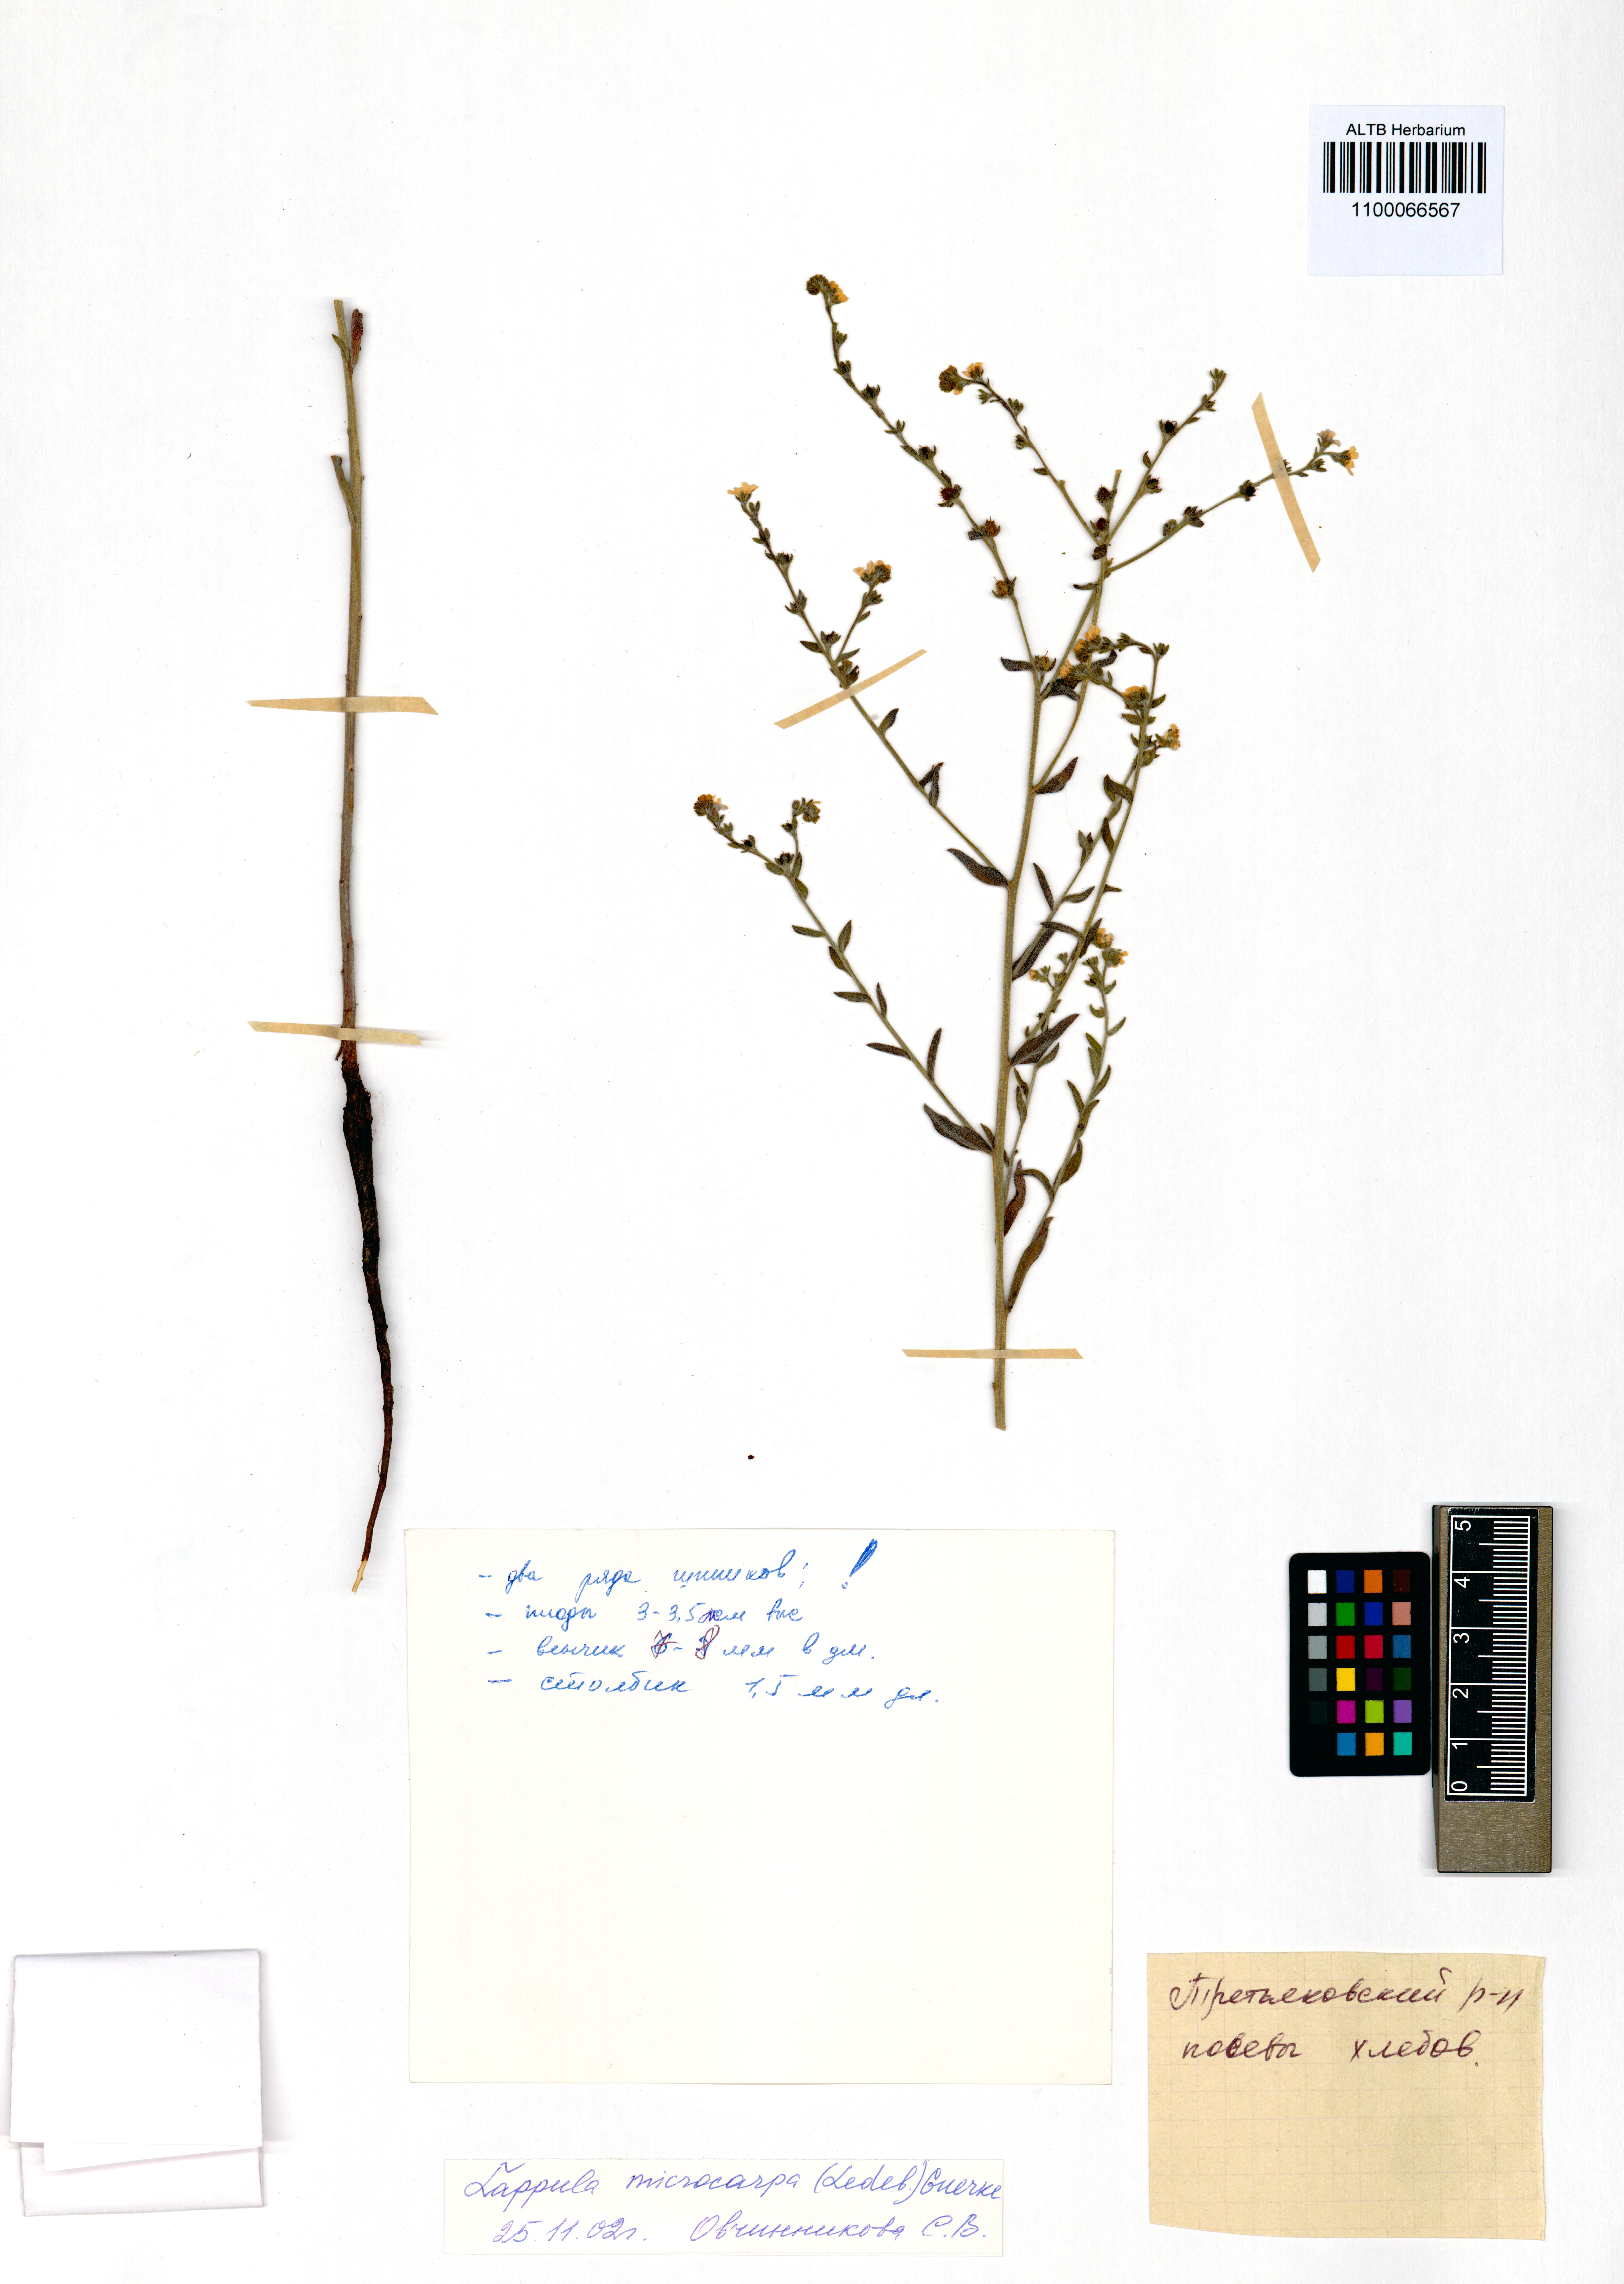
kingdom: Plantae
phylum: Tracheophyta
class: Magnoliopsida
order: Boraginales
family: Boraginaceae
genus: Lappula
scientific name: Lappula microcarpa
